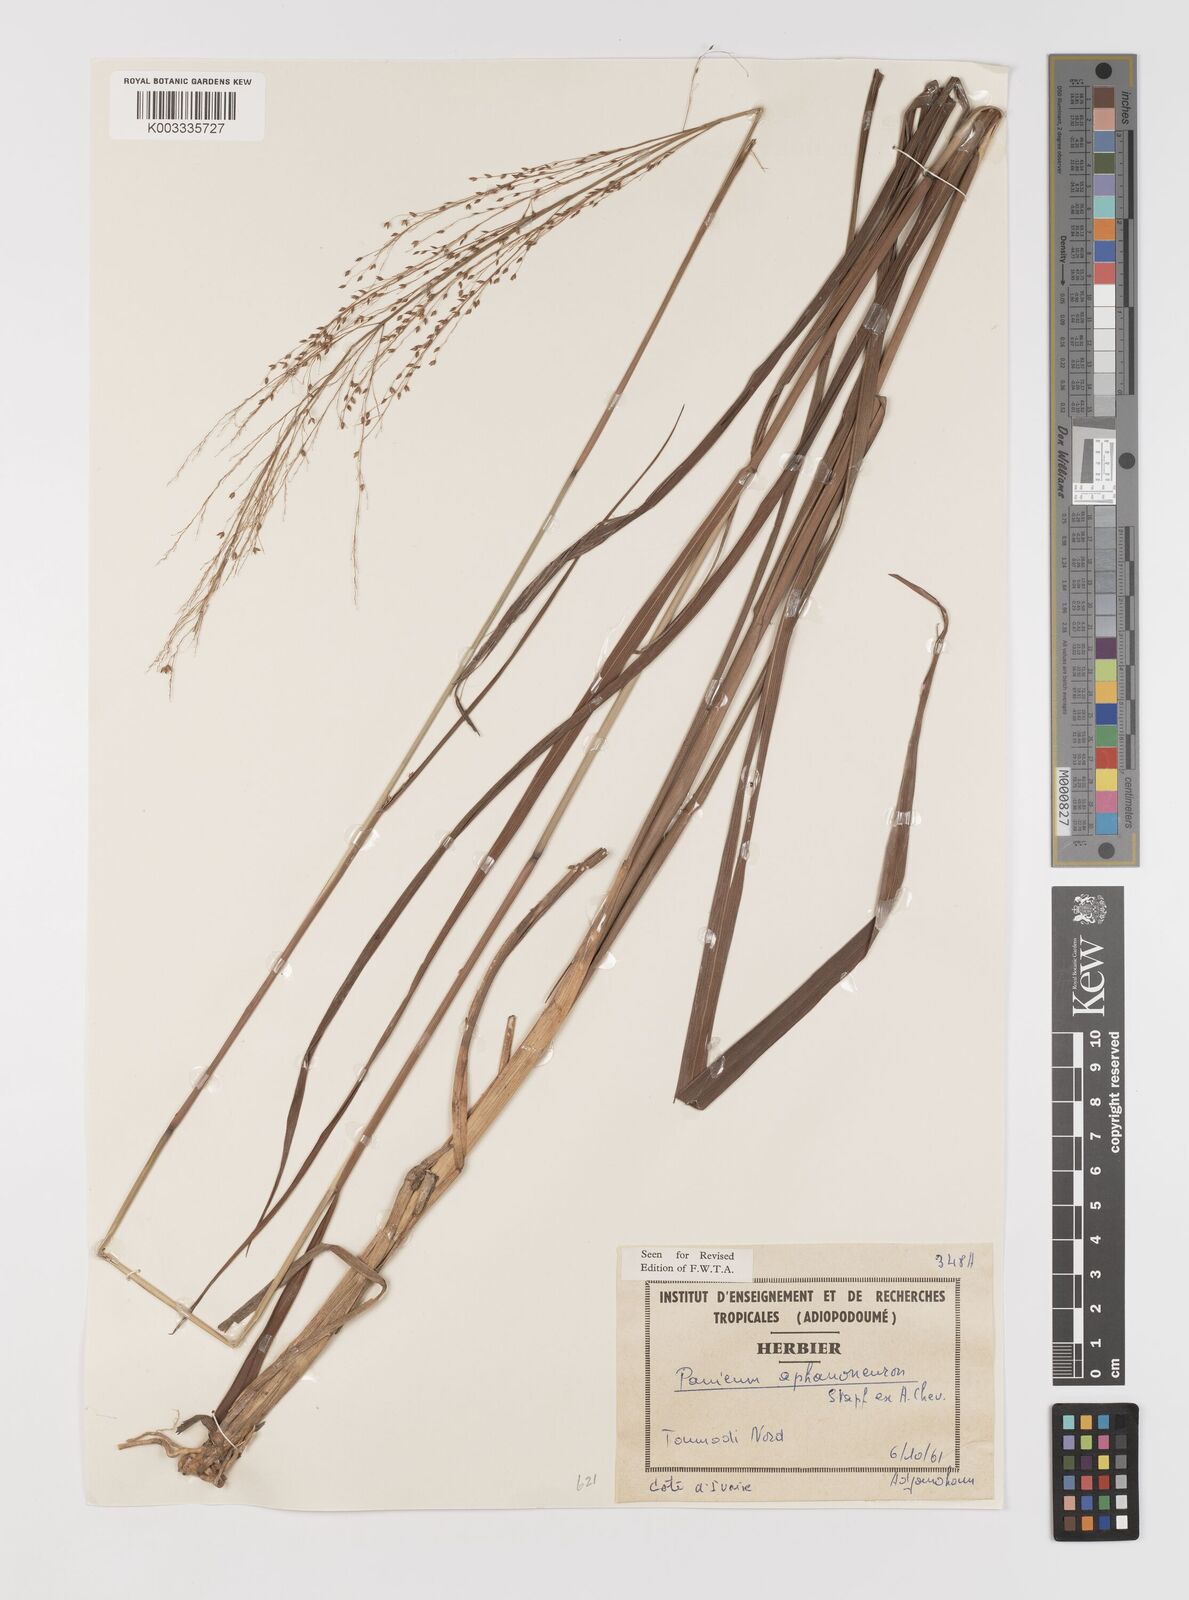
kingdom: Plantae
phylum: Tracheophyta
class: Liliopsida
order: Poales
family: Poaceae
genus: Panicum
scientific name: Panicum fluviicola
